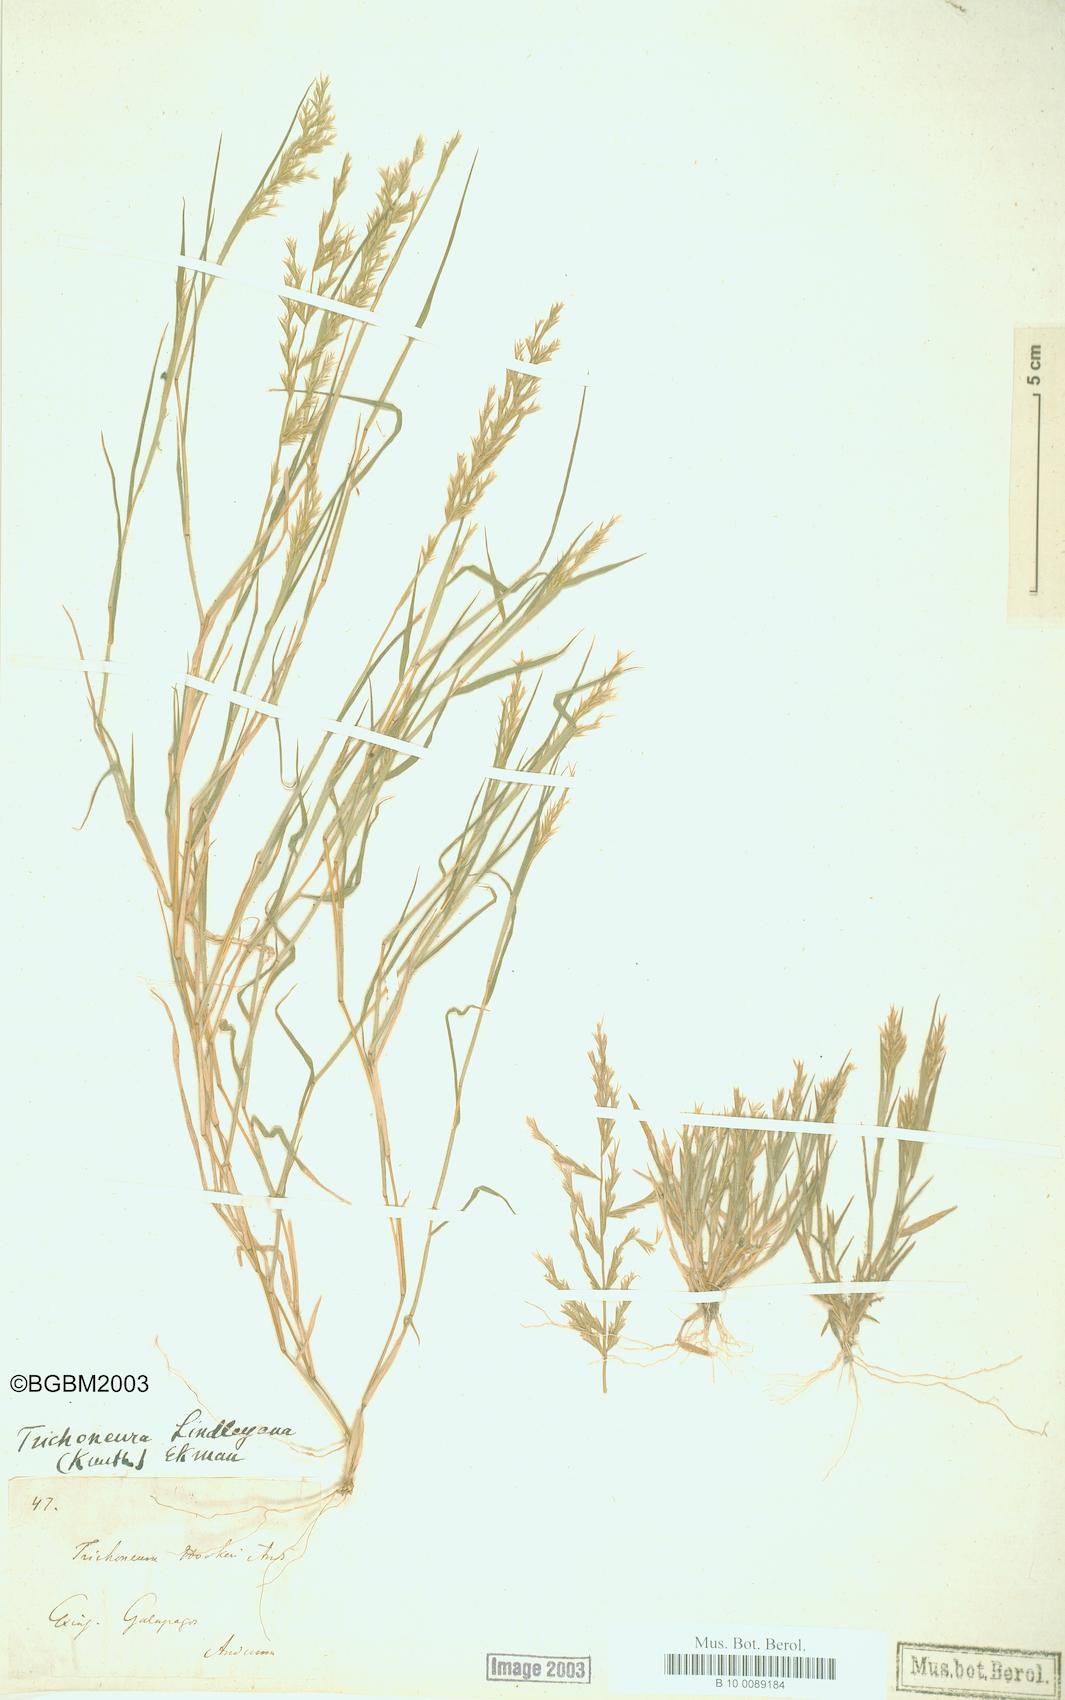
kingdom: Plantae
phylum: Tracheophyta
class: Liliopsida
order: Poales
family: Poaceae
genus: Trichoneura
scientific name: Trichoneura lindleyana
